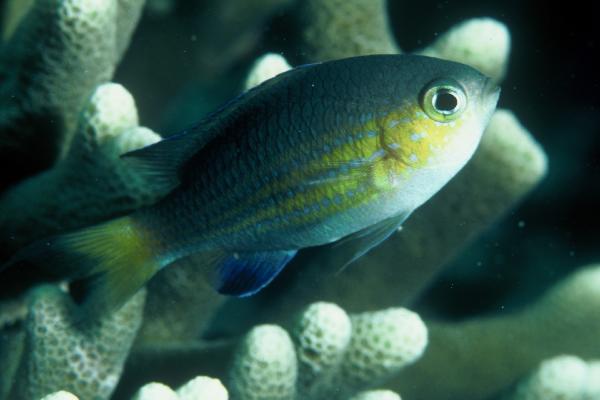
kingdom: Animalia
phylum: Chordata
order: Perciformes
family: Pomacentridae
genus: Chromis
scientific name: Chromis nigrura
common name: Blacktail chromis
